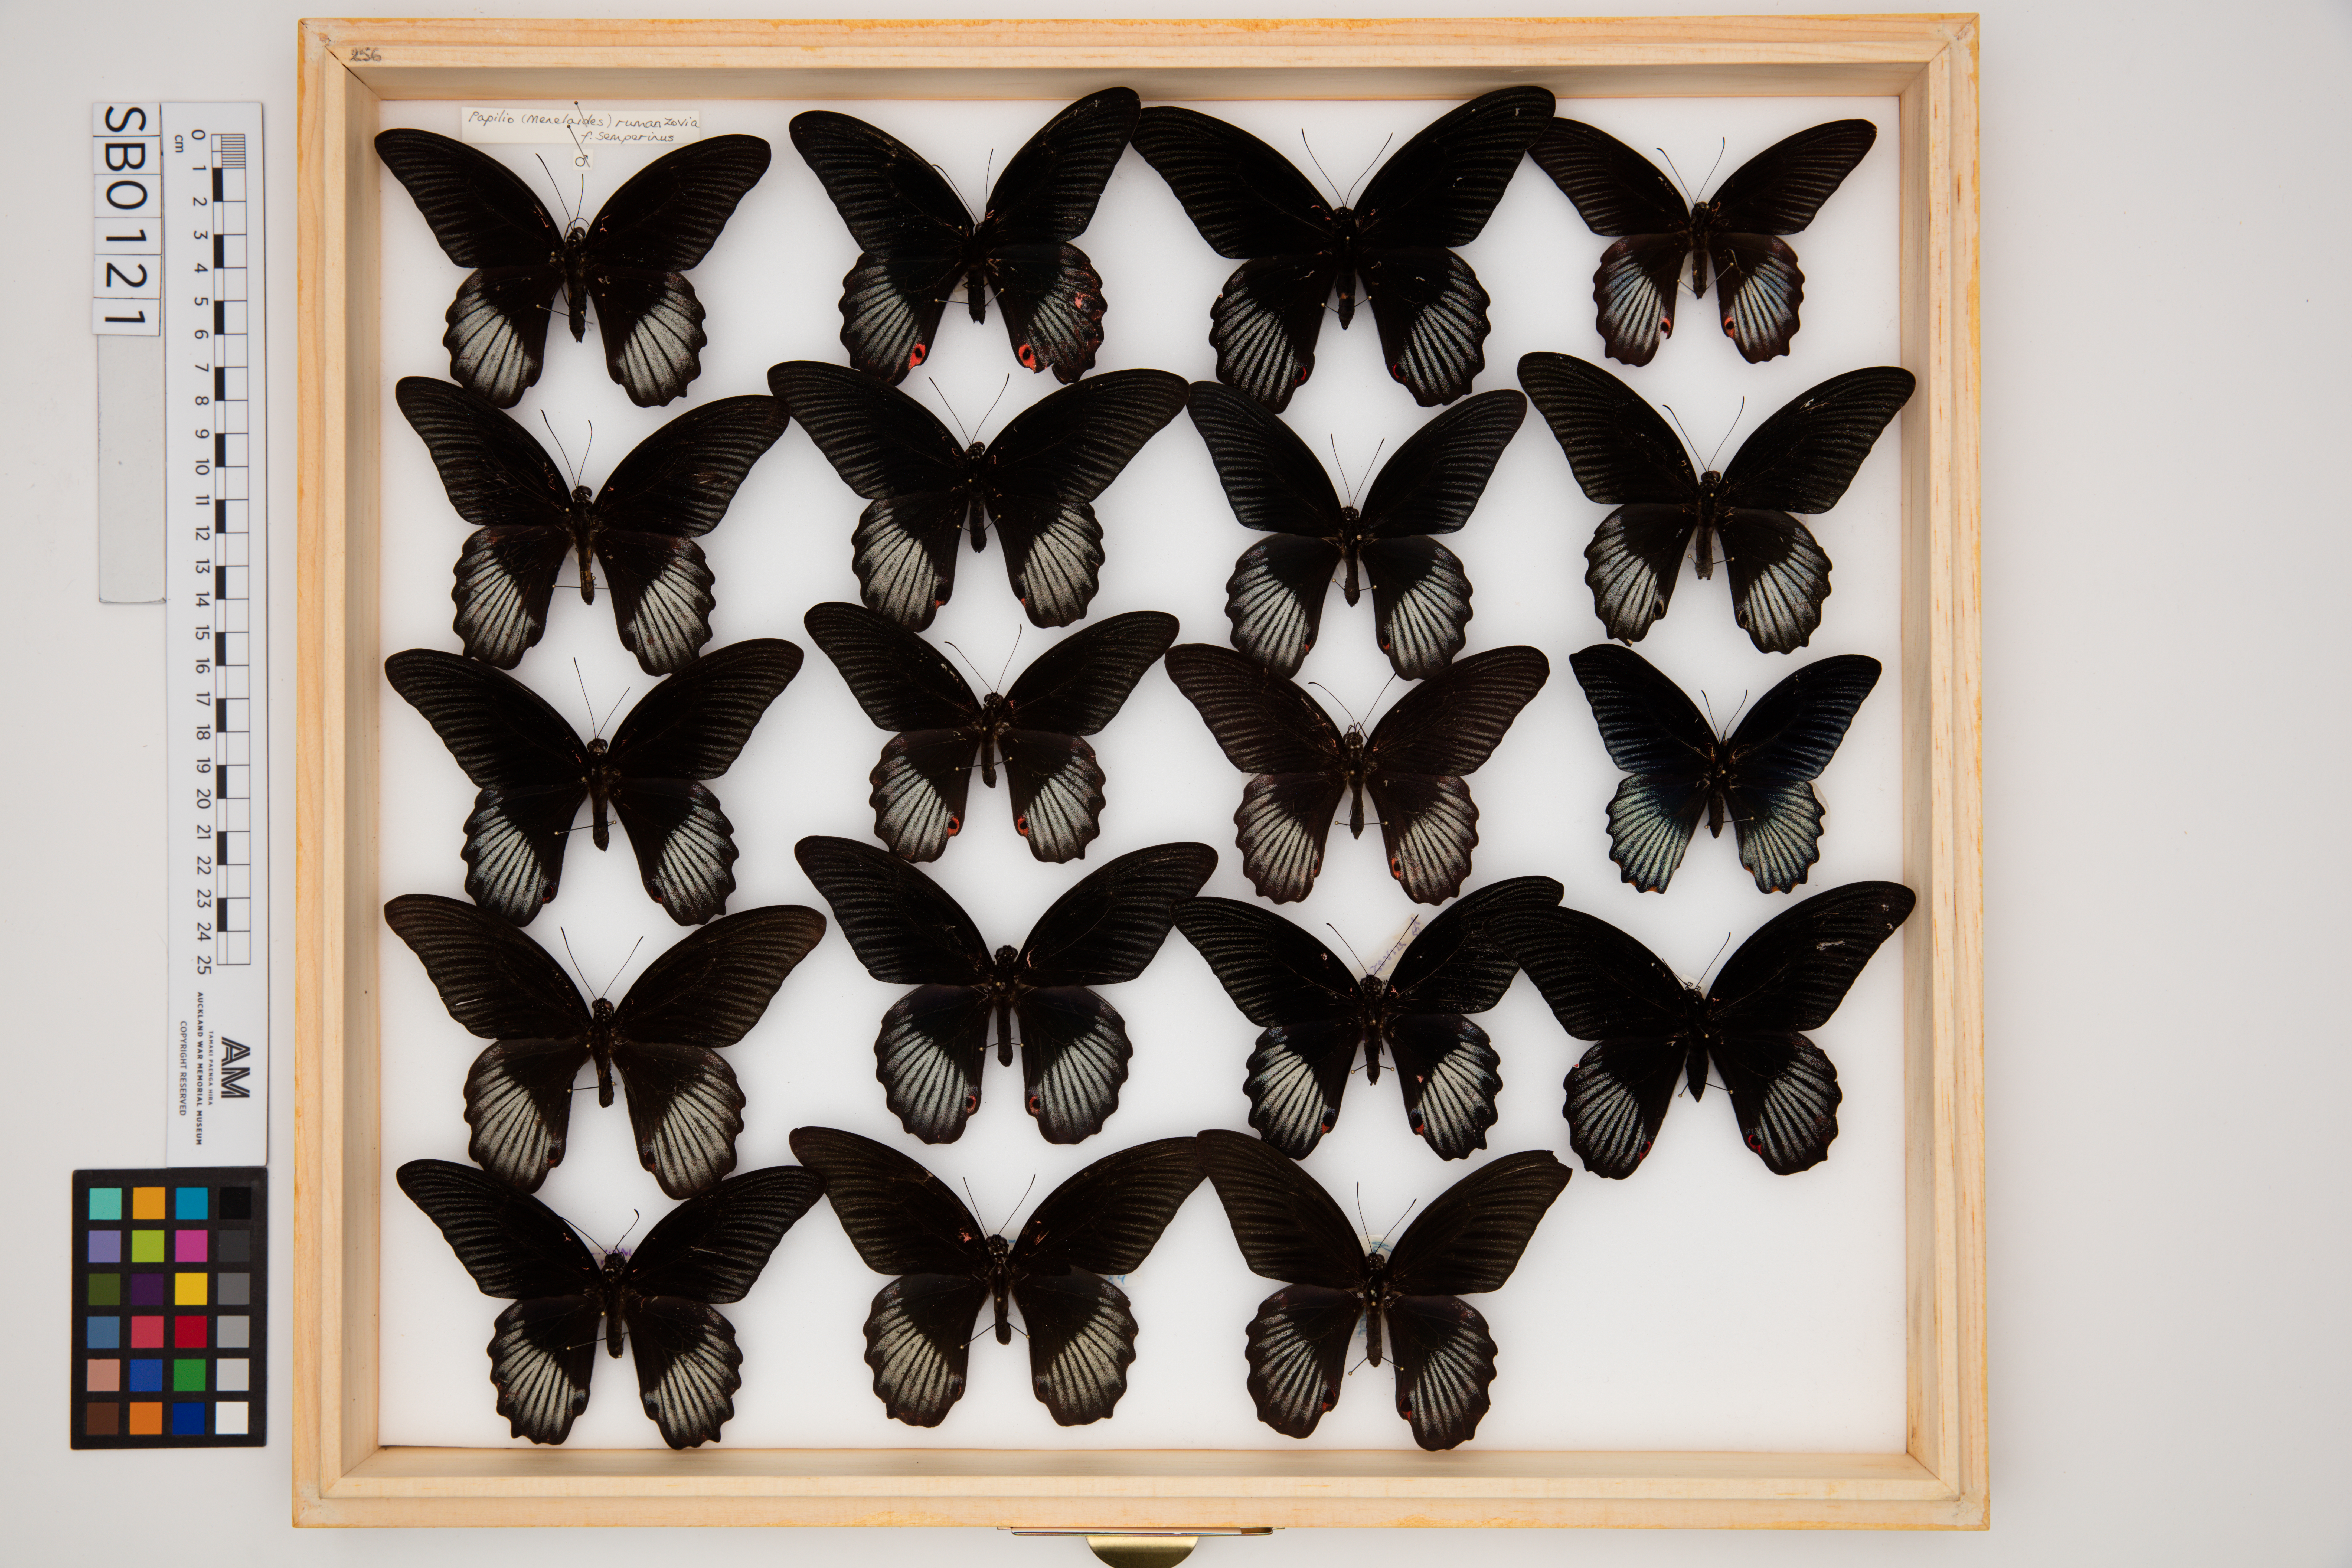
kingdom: Animalia
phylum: Arthropoda
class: Insecta
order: Lepidoptera
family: Papilionidae
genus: Papilio
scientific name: Papilio rumanzovia
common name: Scarlet mormon swallowtail
